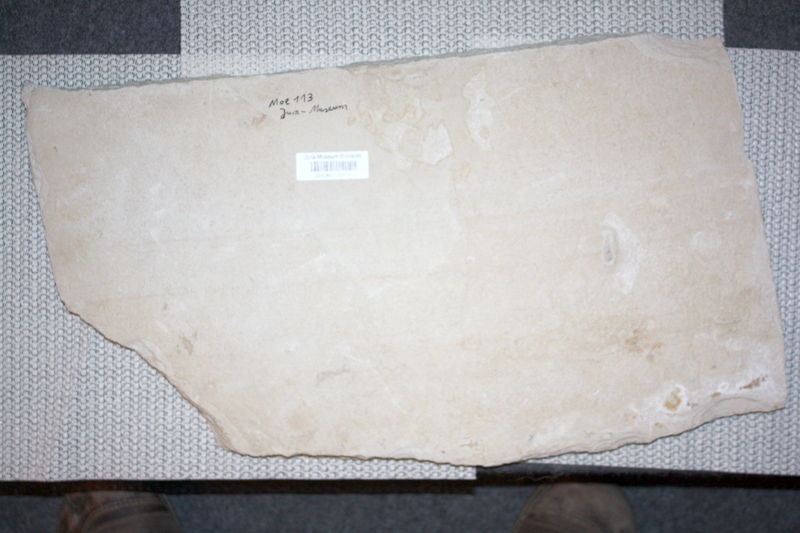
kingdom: Animalia
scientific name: Animalia
